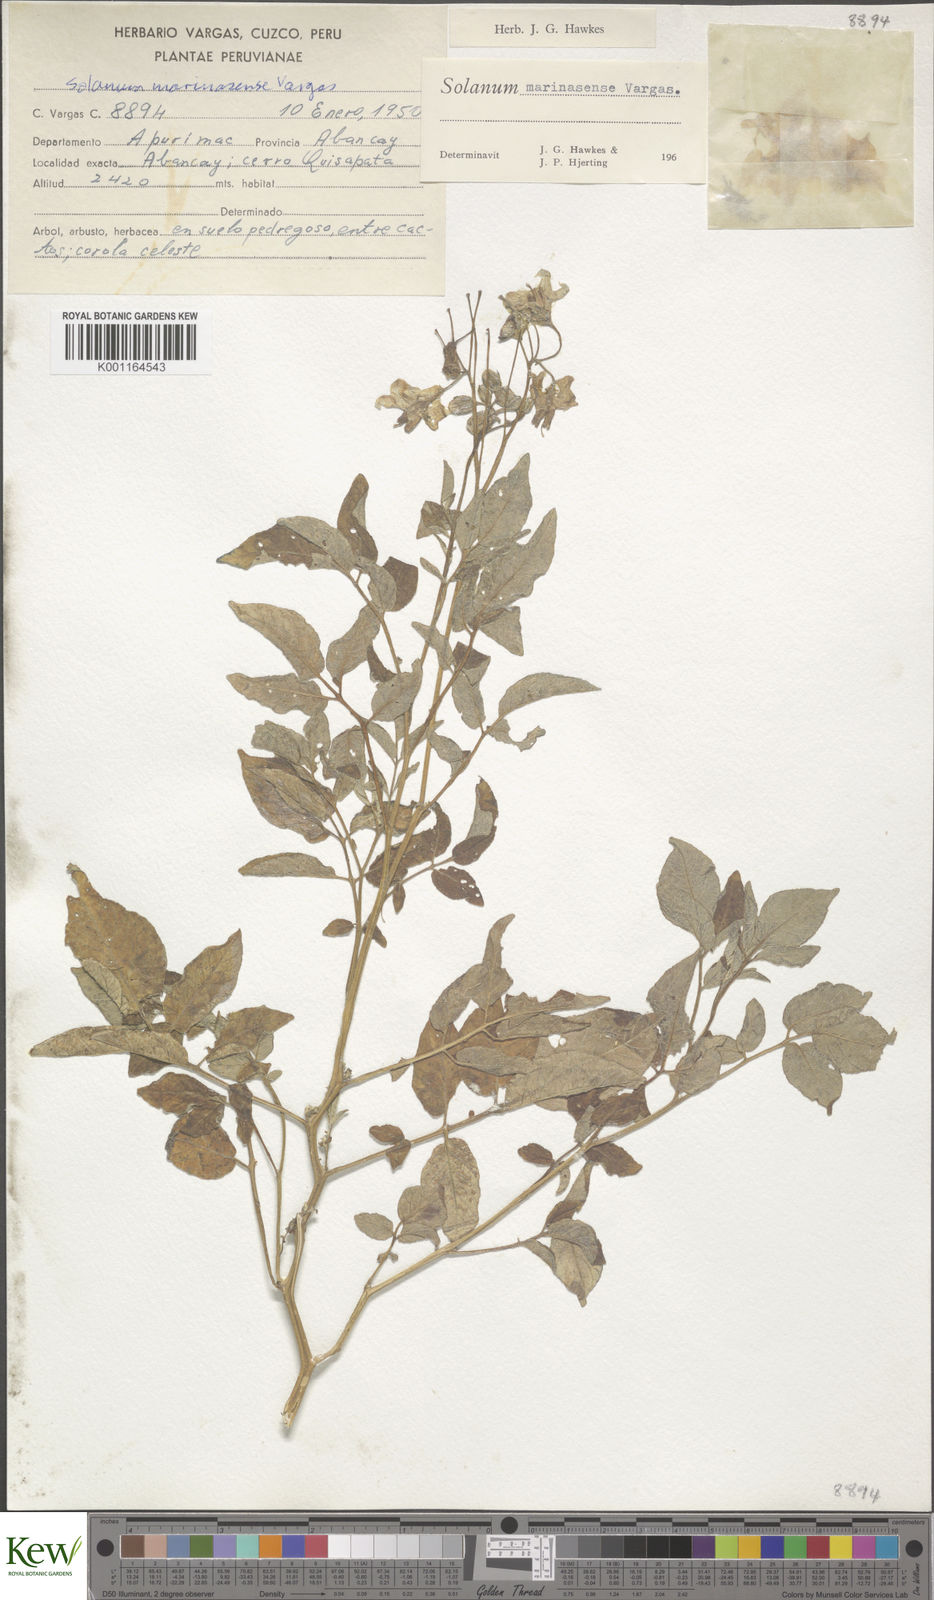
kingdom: Plantae
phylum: Tracheophyta
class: Magnoliopsida
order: Solanales
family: Solanaceae
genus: Solanum
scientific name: Solanum candolleanum
